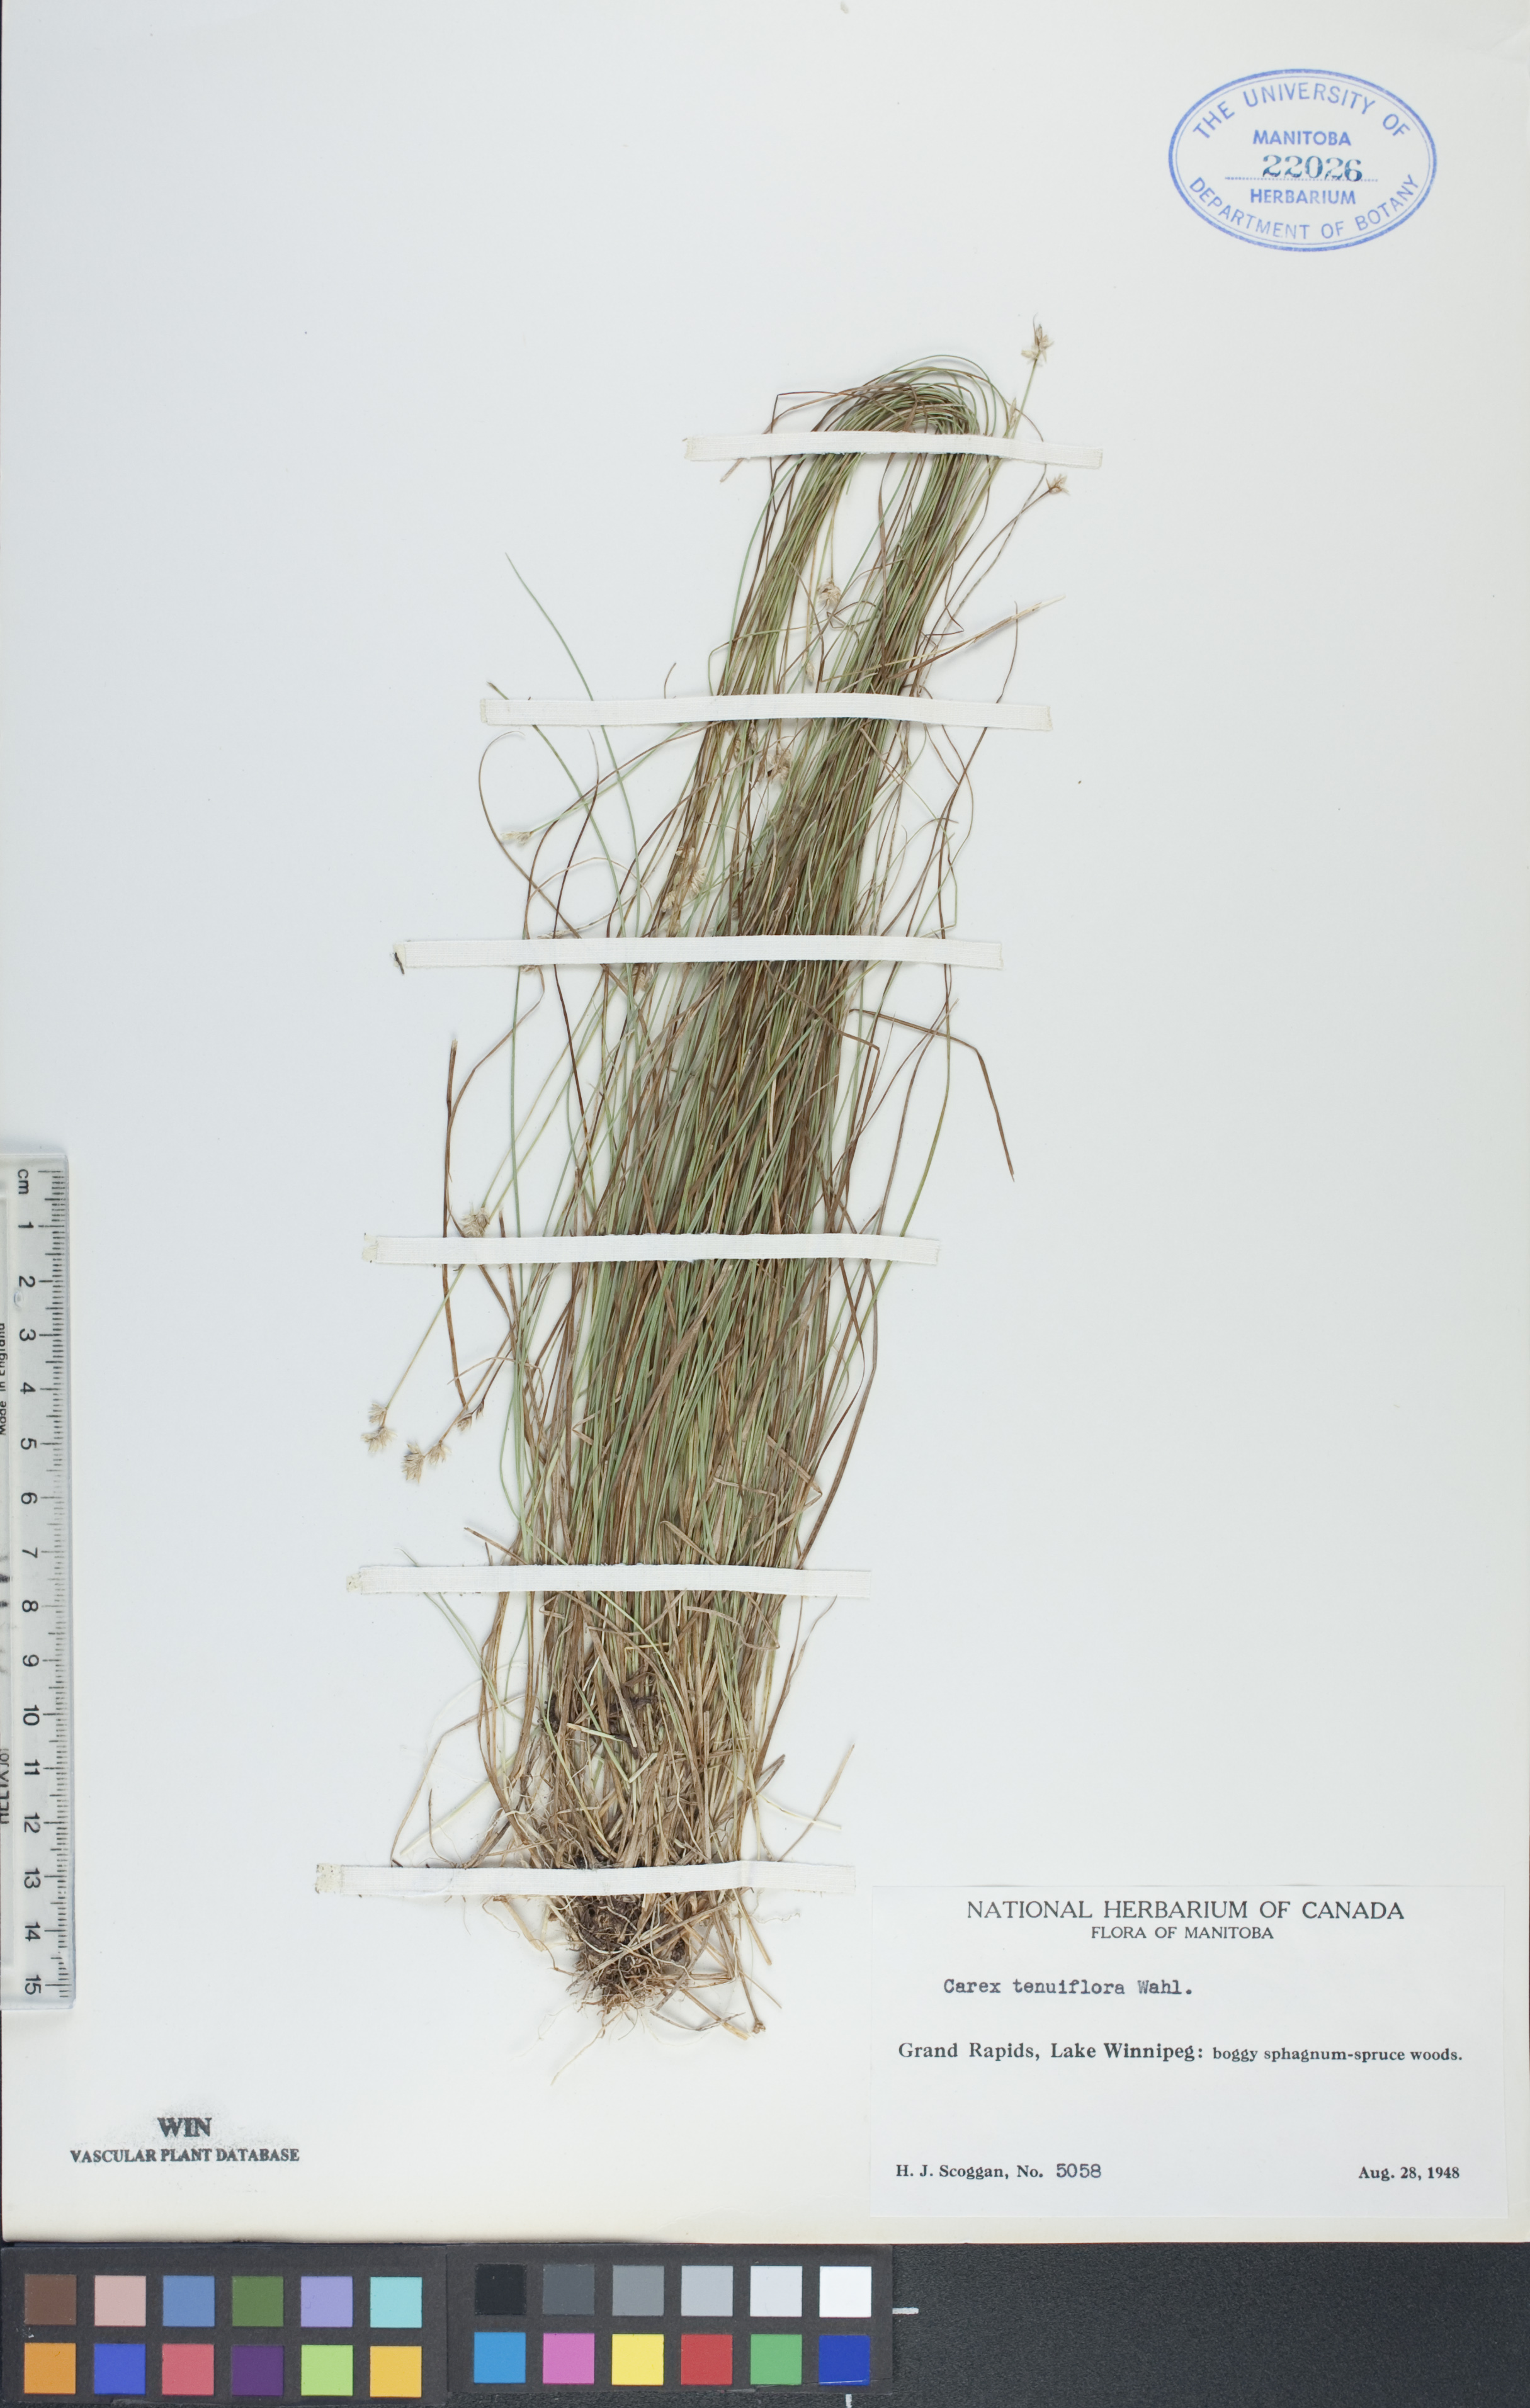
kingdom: Plantae
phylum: Tracheophyta
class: Liliopsida
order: Poales
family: Cyperaceae
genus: Carex
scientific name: Carex tenuiflora
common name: Sparse-flowered sedge
